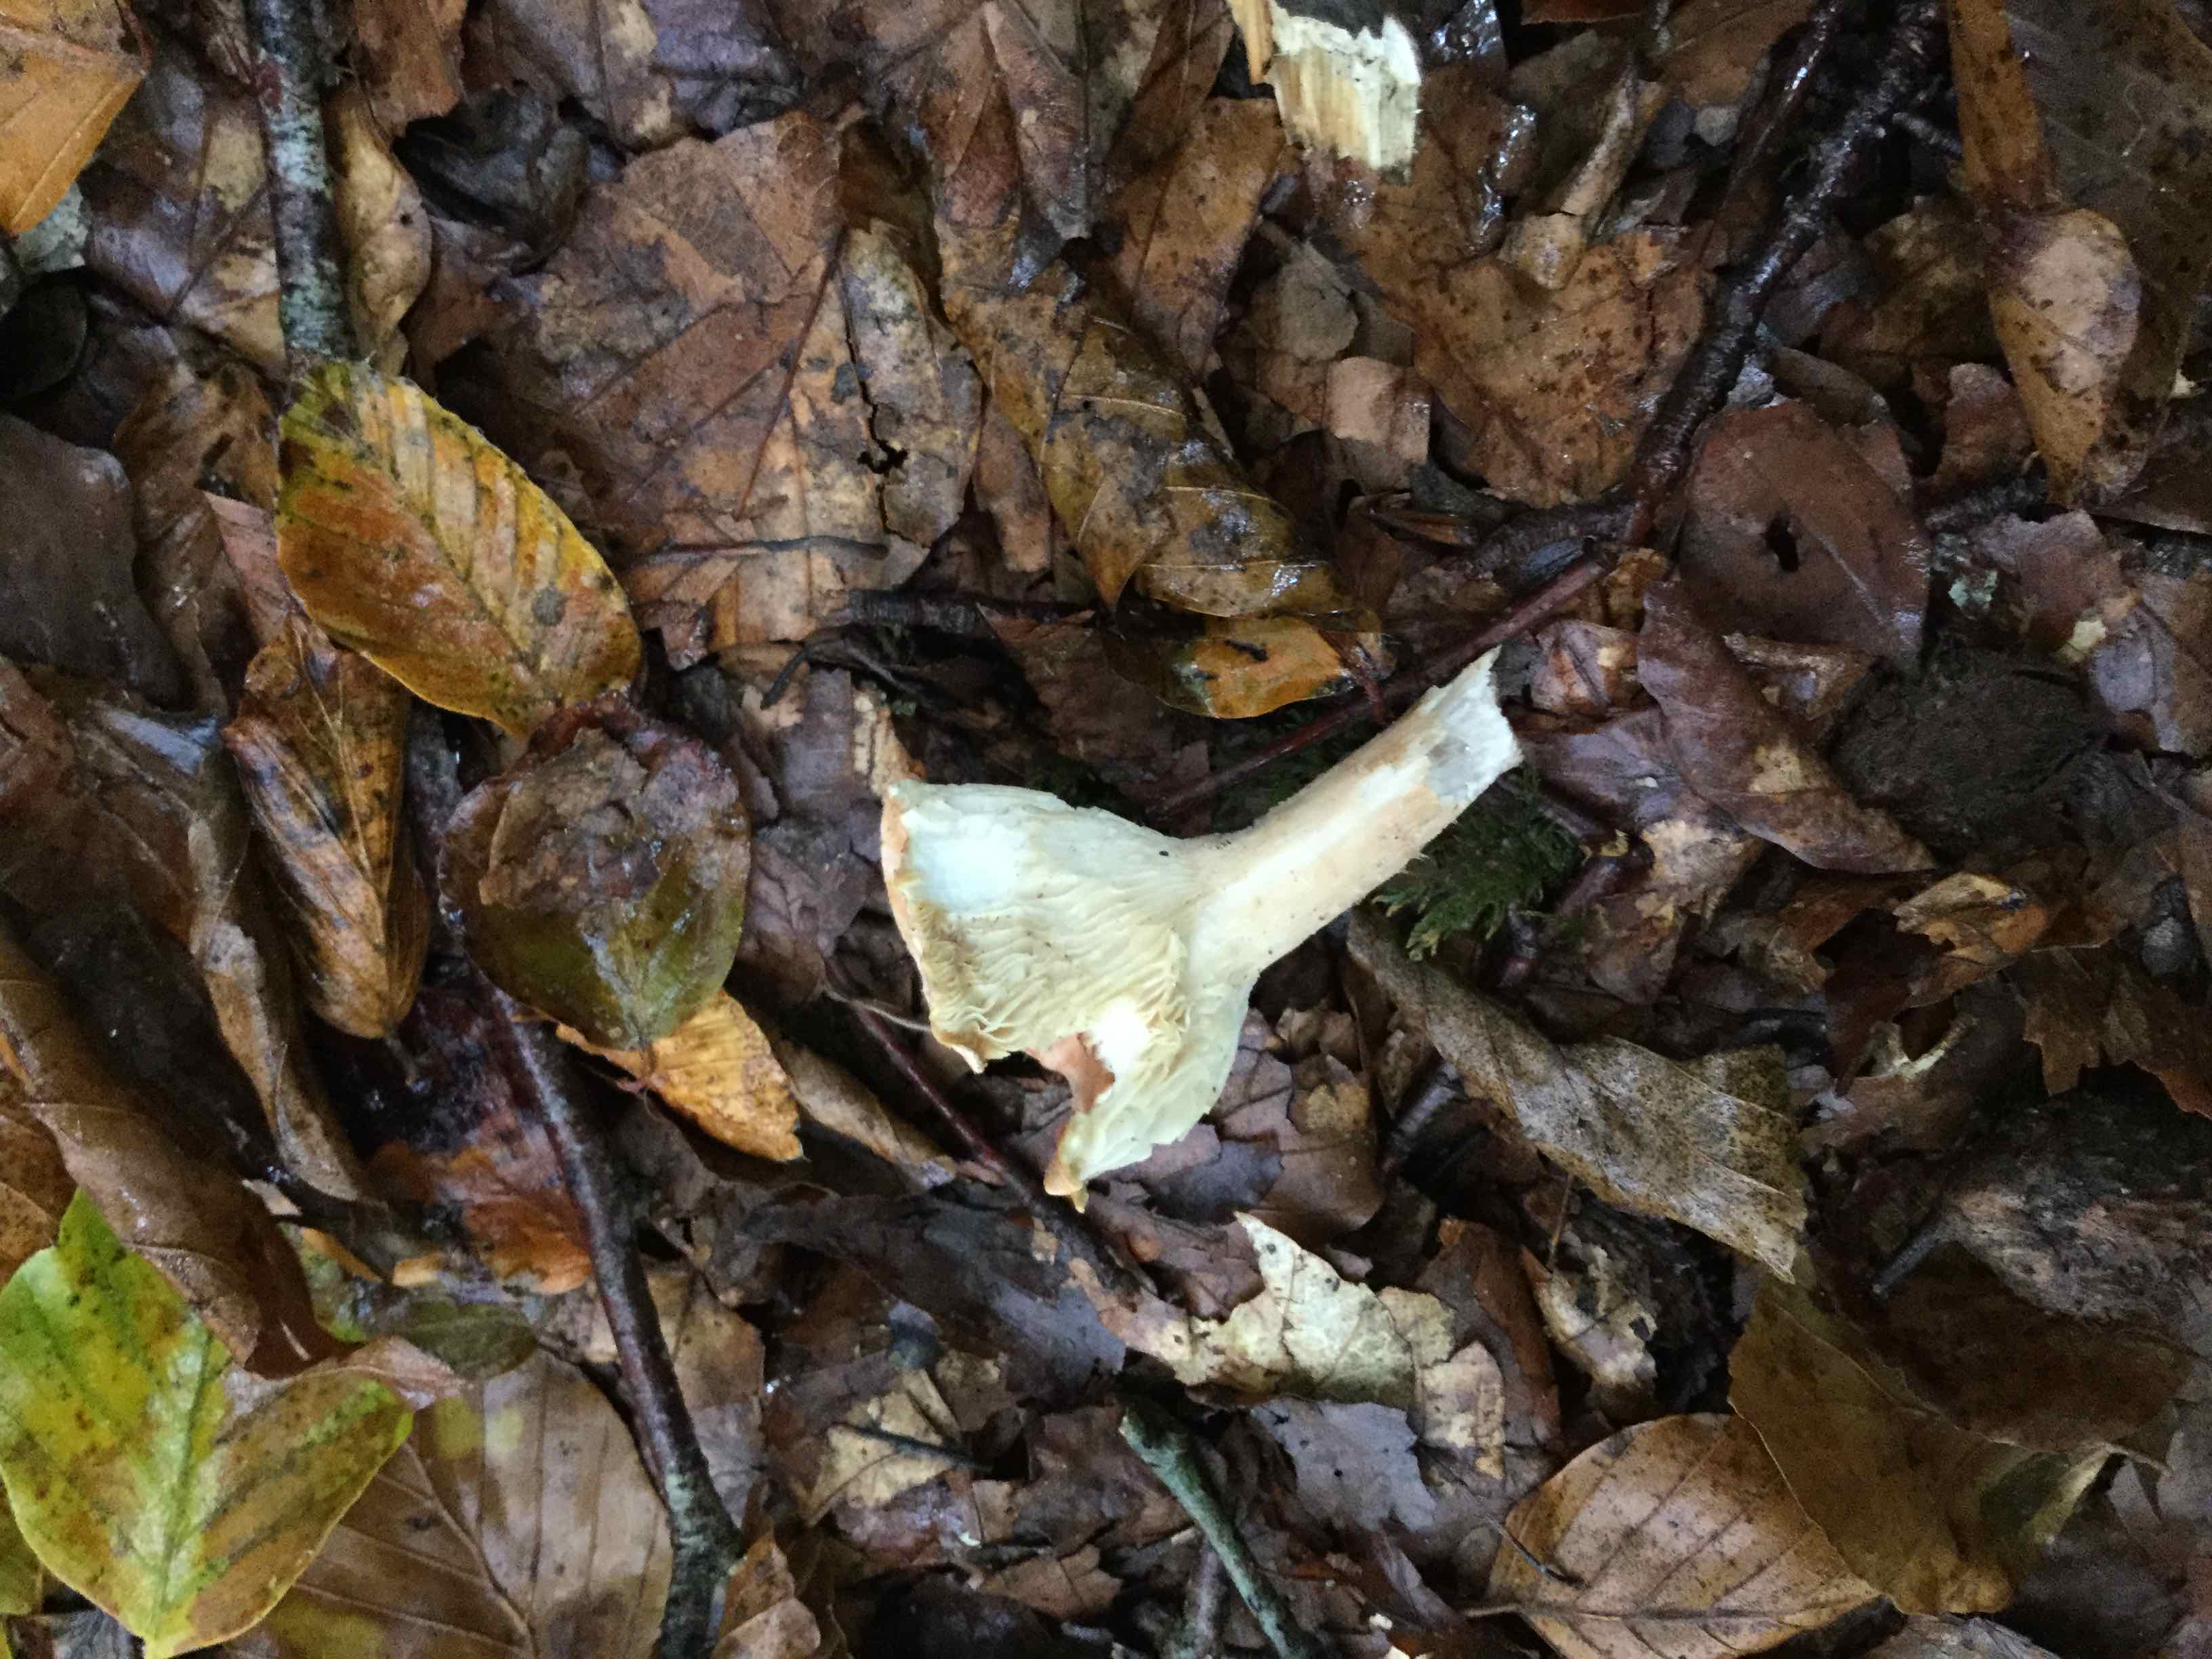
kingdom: Fungi
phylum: Basidiomycota
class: Agaricomycetes
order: Agaricales
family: Tricholomataceae
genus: Infundibulicybe
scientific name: Infundibulicybe gibba
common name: almindelig tragthat
